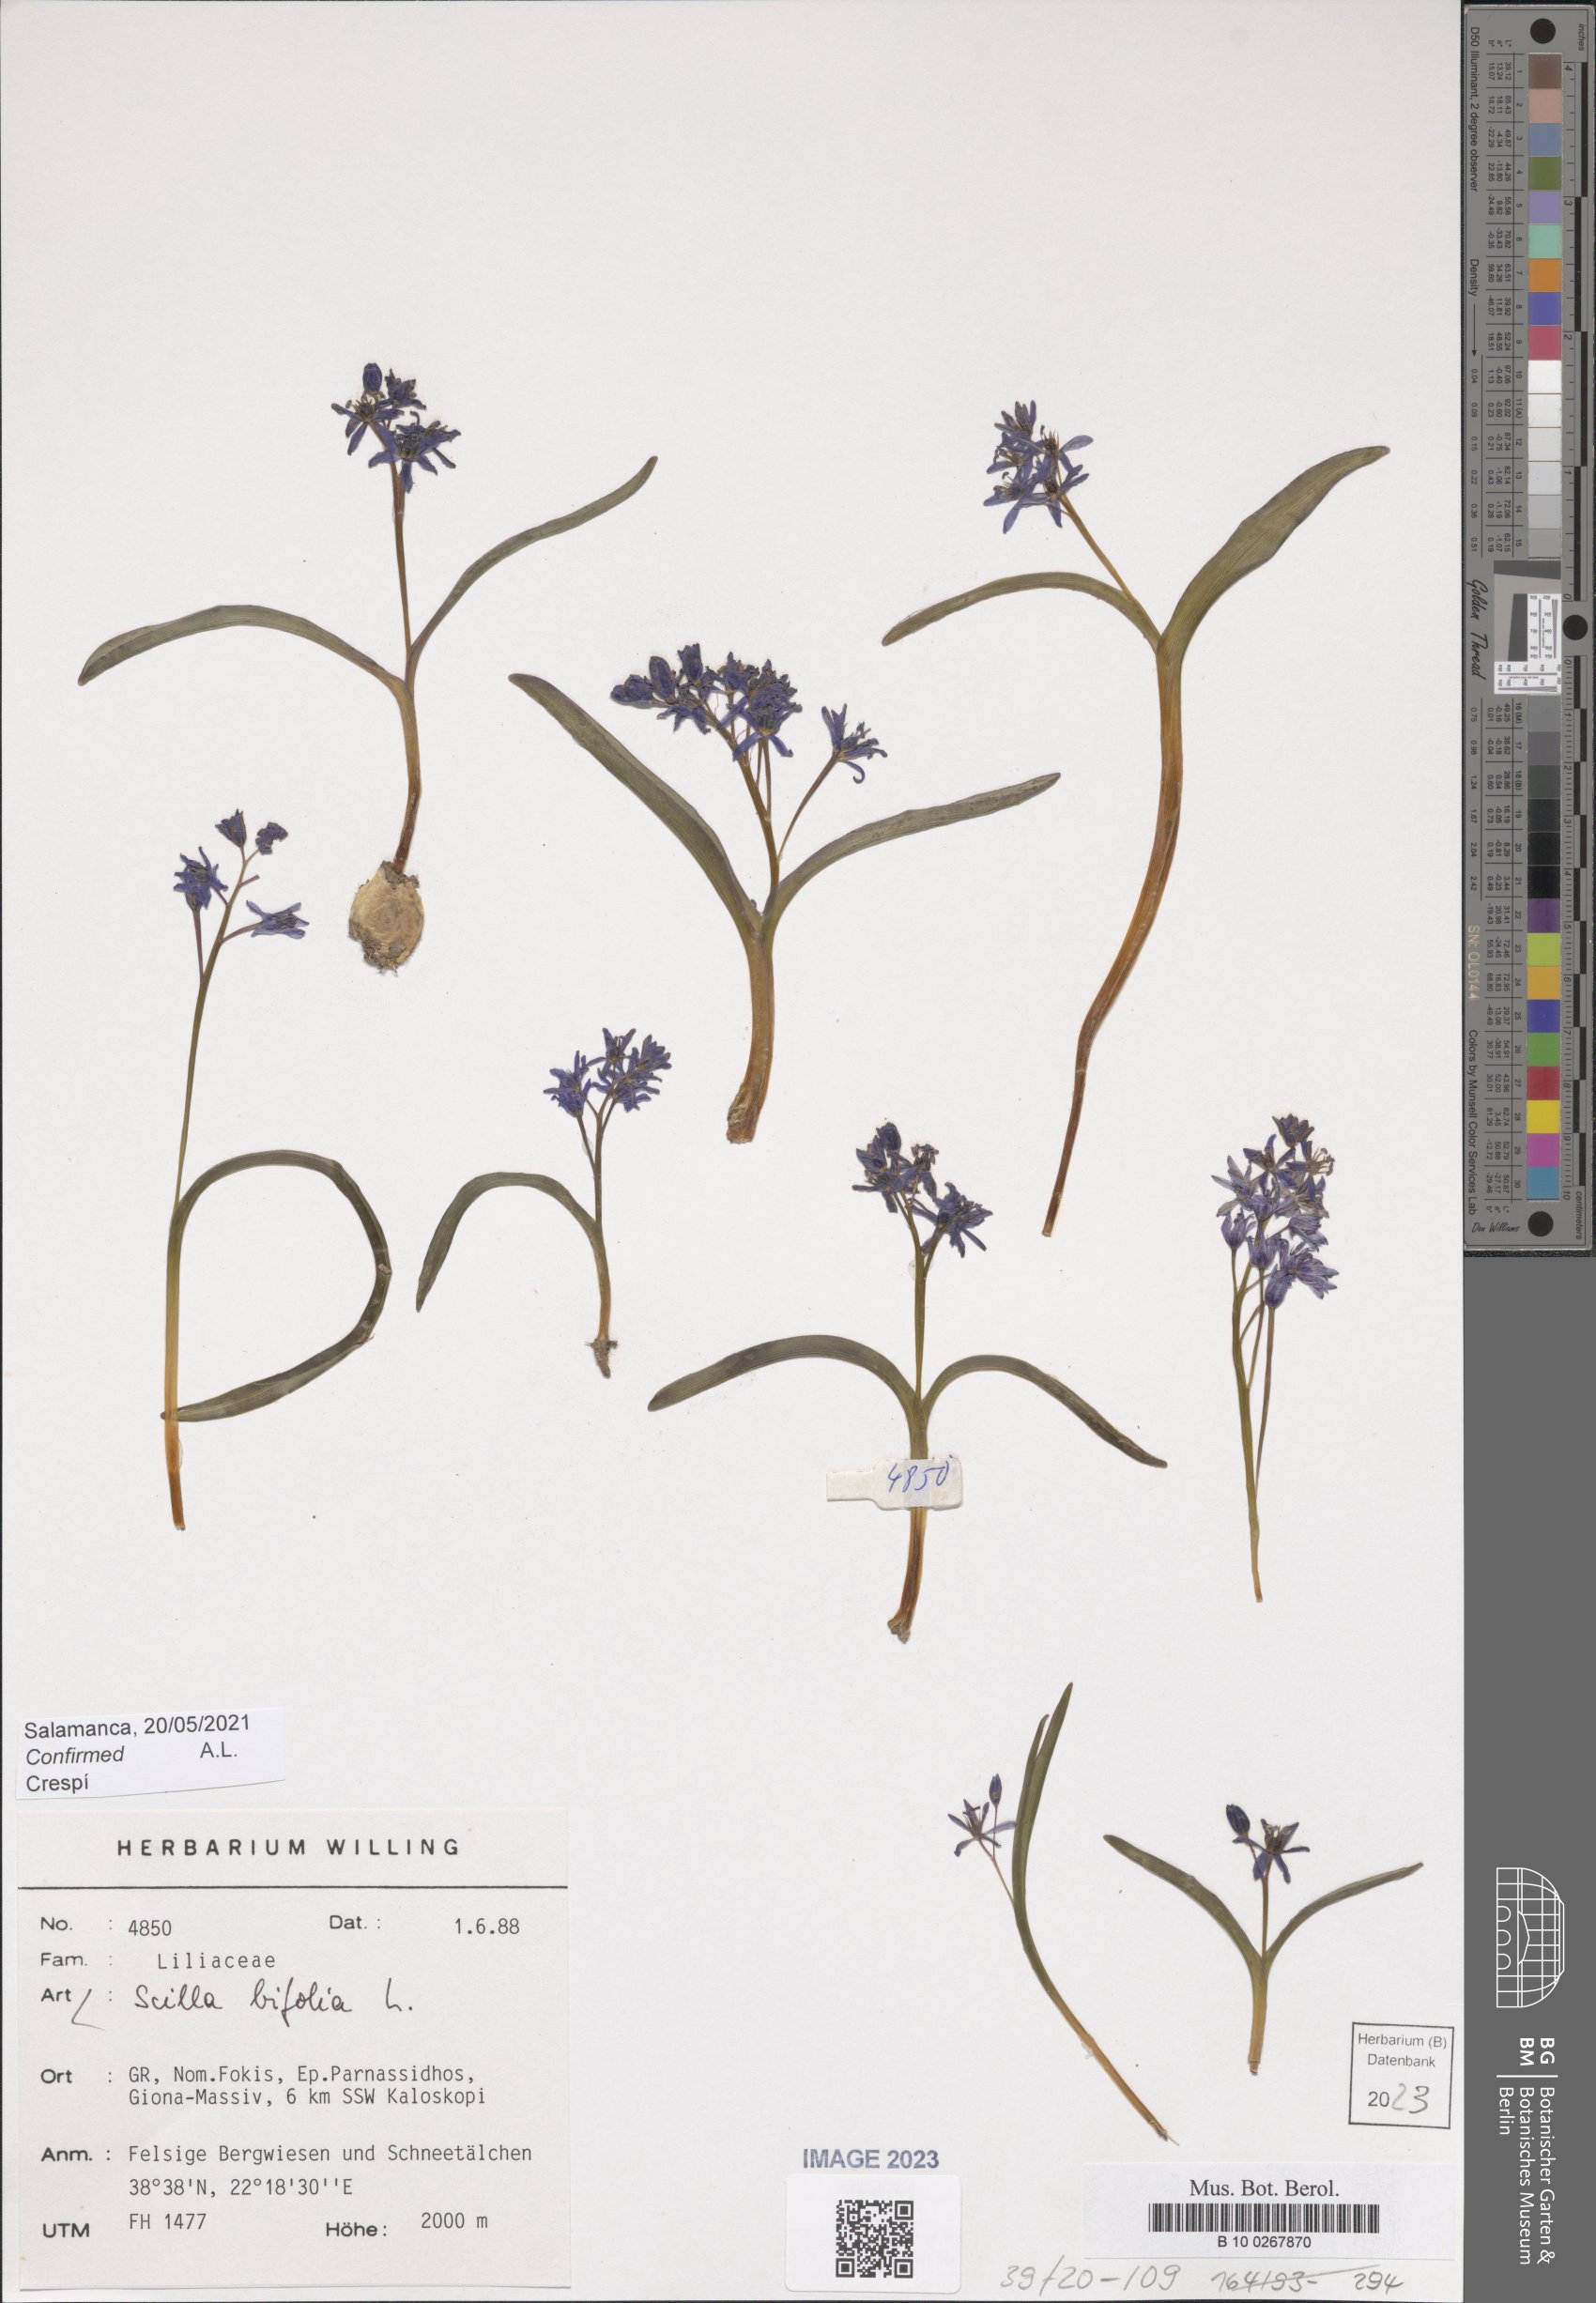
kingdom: Plantae
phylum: Tracheophyta
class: Liliopsida
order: Asparagales
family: Asparagaceae
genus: Scilla
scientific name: Scilla bifolia
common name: Alpine squill
